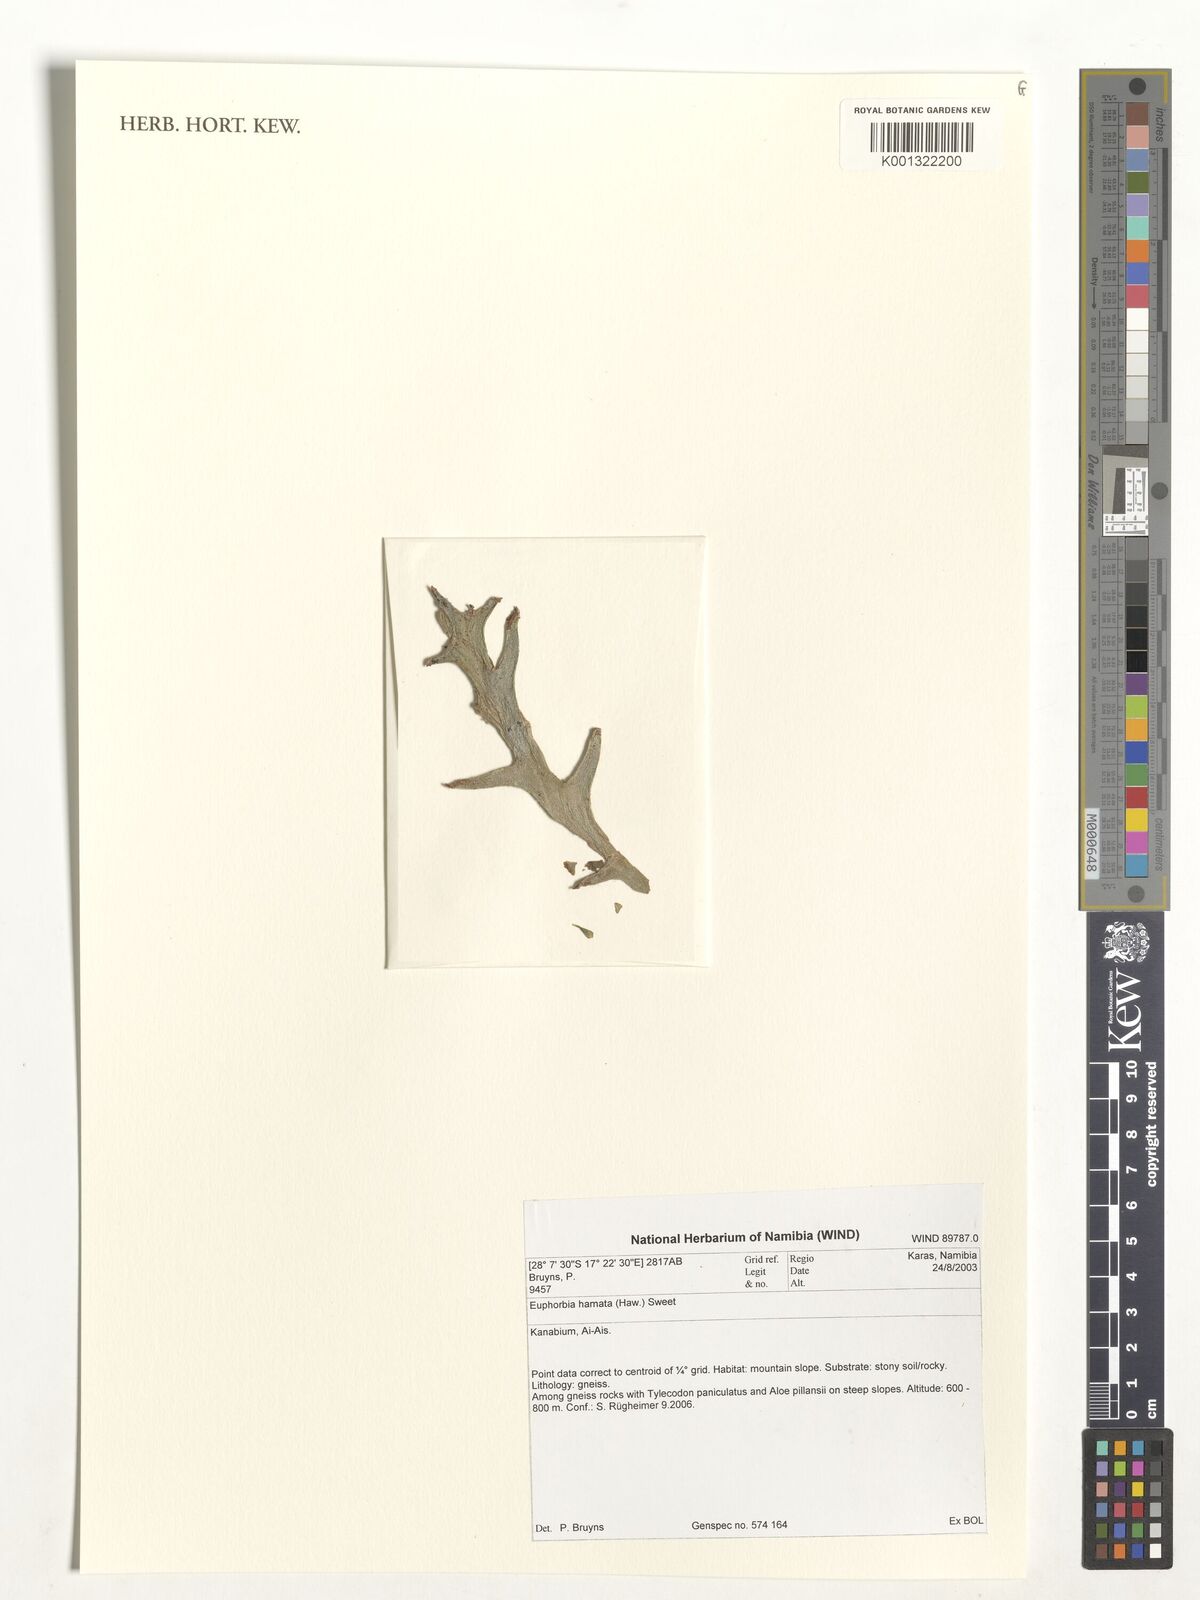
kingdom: Plantae
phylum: Tracheophyta
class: Magnoliopsida
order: Malpighiales
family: Euphorbiaceae
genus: Euphorbia
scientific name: Euphorbia hamata
